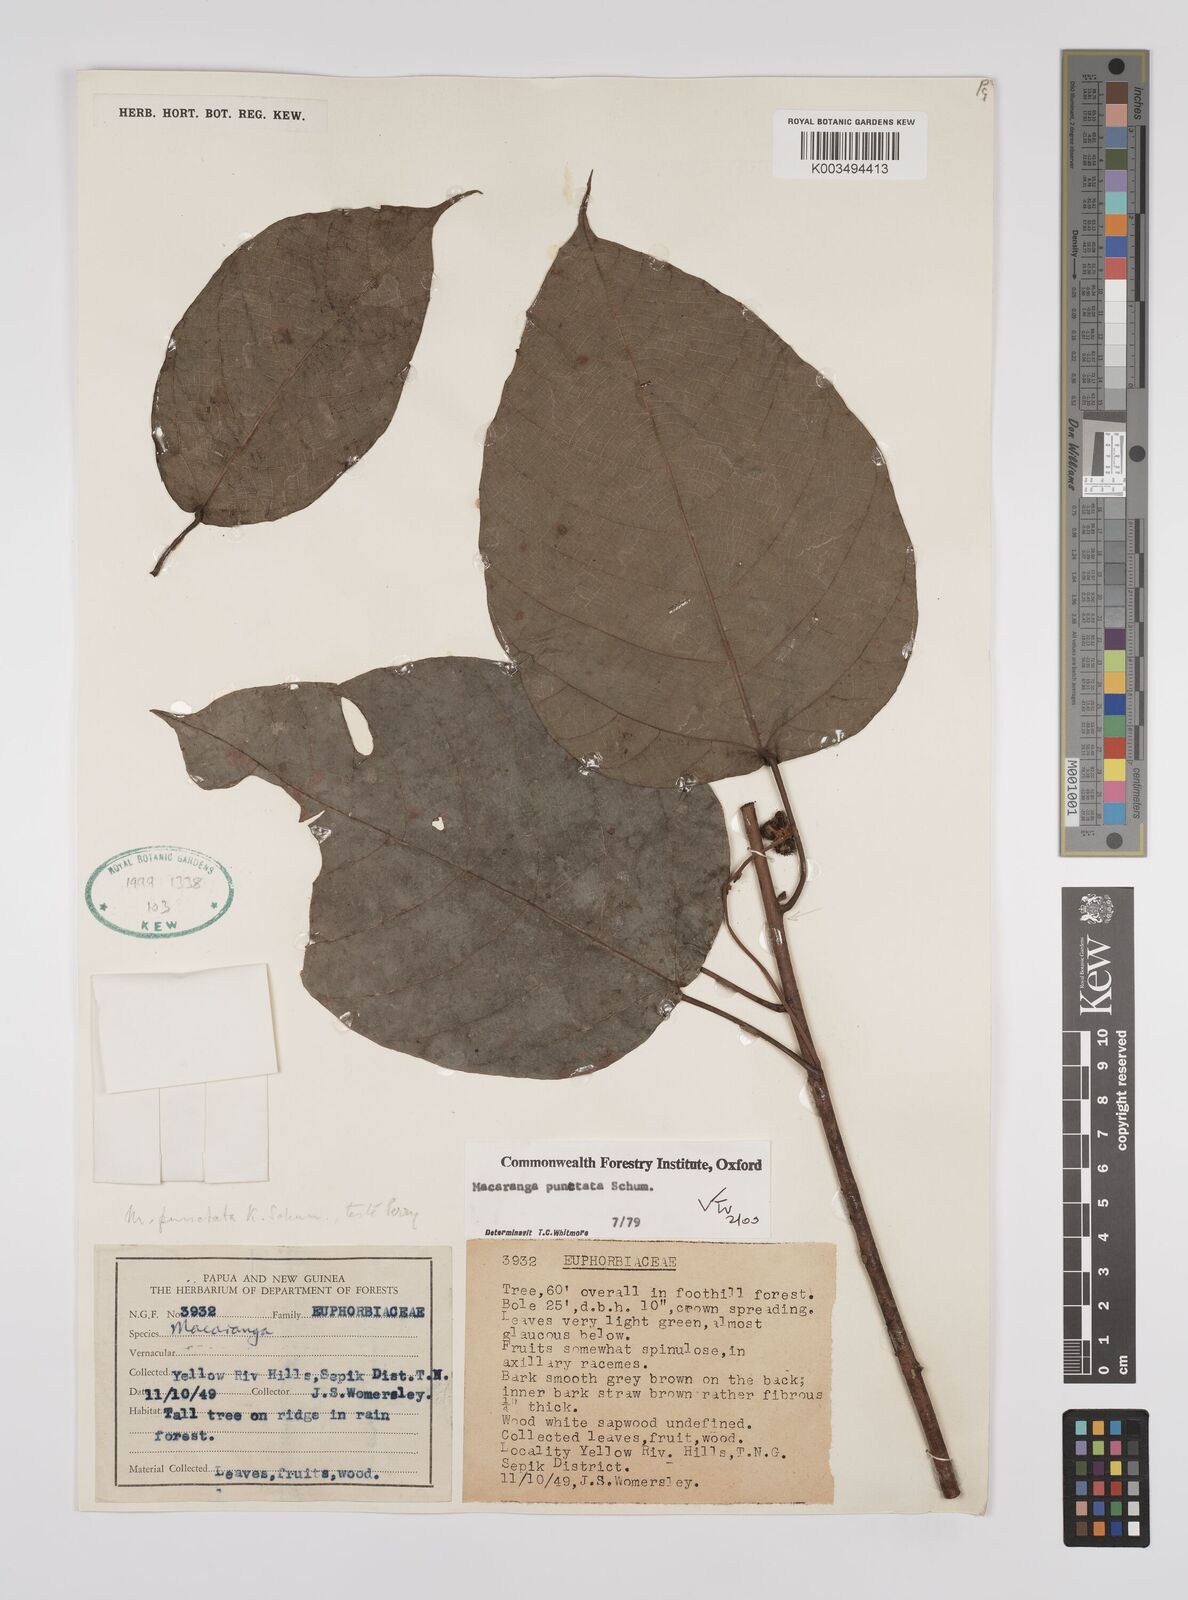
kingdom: Plantae
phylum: Tracheophyta
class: Magnoliopsida
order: Malpighiales
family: Euphorbiaceae
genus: Macaranga
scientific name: Macaranga punctata
